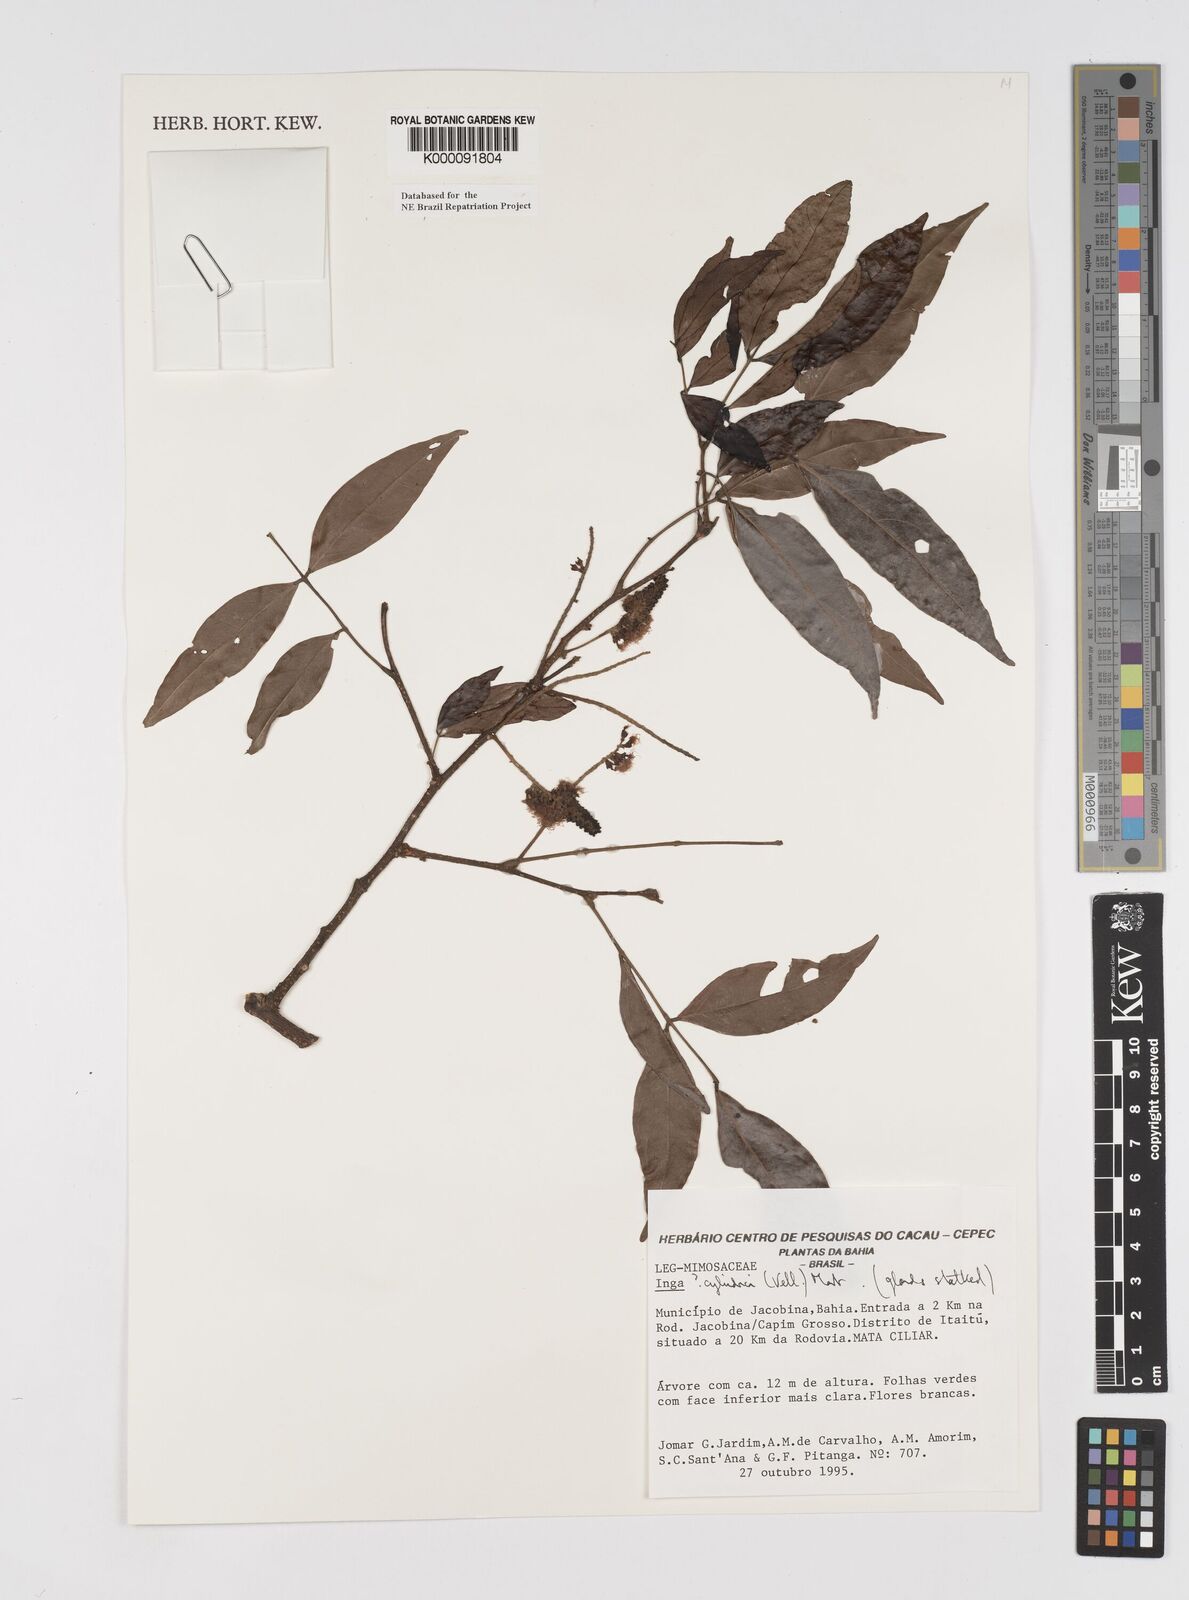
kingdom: Plantae
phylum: Tracheophyta
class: Magnoliopsida
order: Fabales
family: Fabaceae
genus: Inga
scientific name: Inga cylindrica
